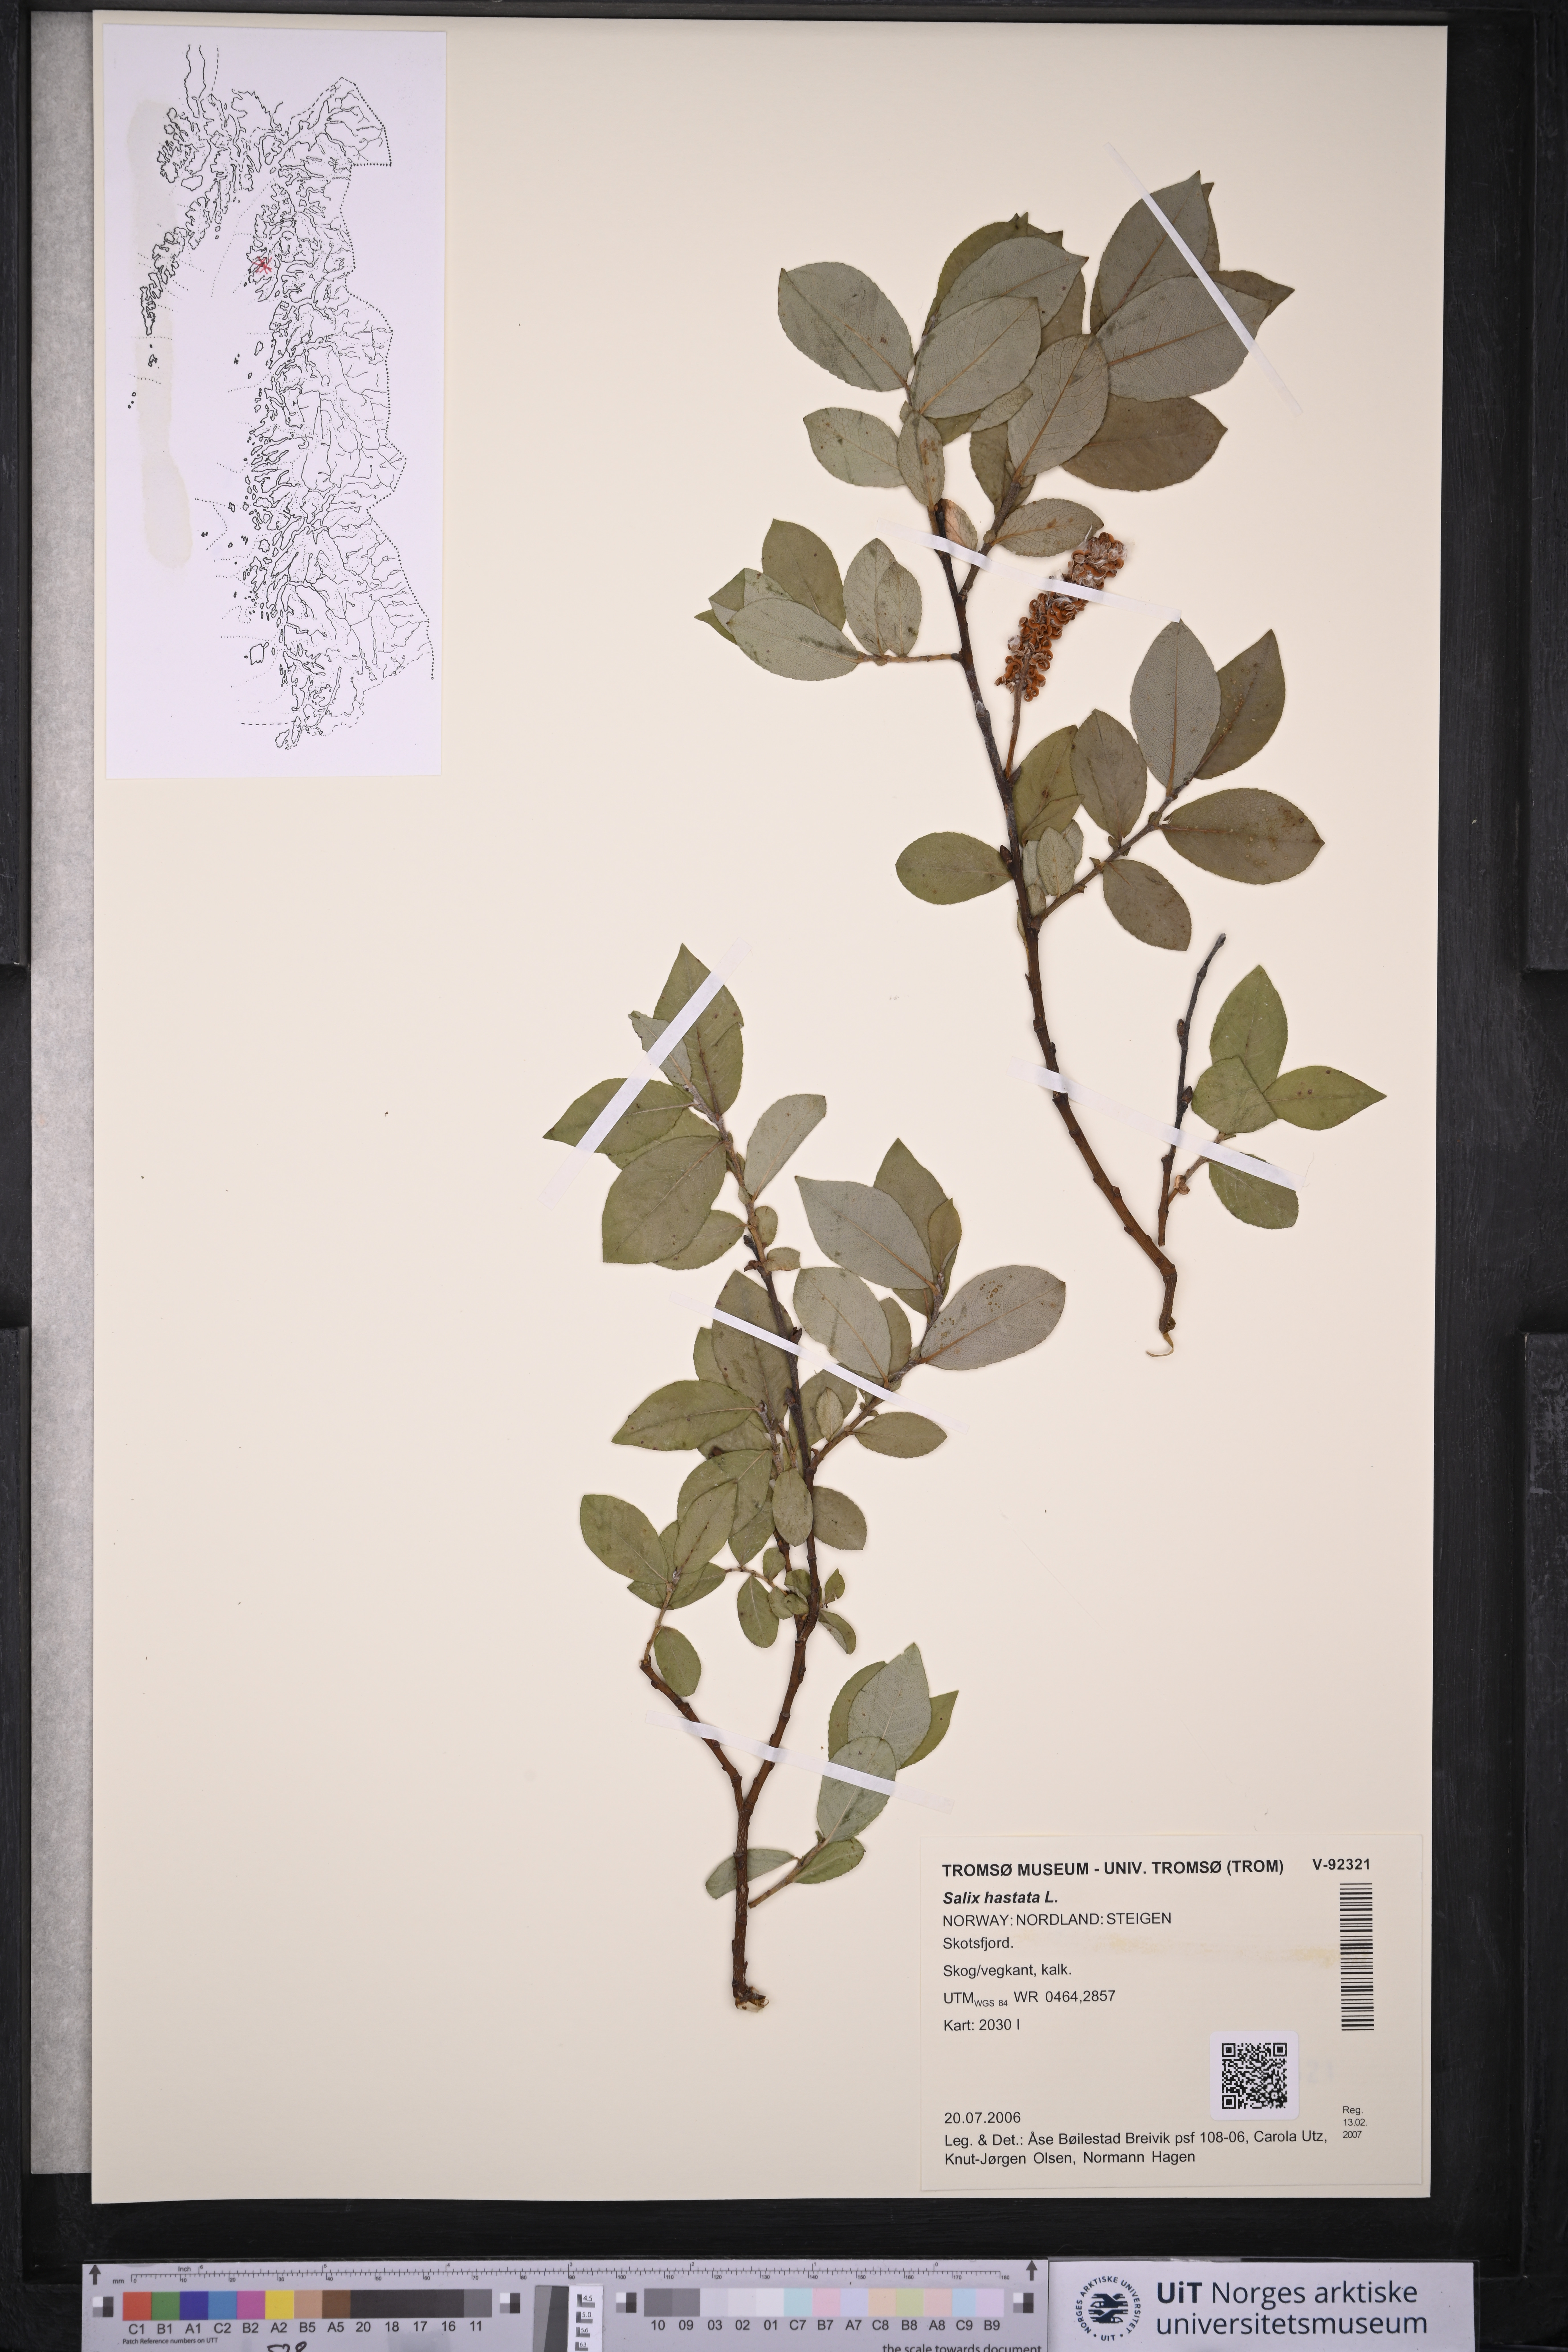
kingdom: Plantae
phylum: Tracheophyta
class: Magnoliopsida
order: Malpighiales
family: Salicaceae
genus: Salix
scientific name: Salix hastata
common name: Halberd willow
